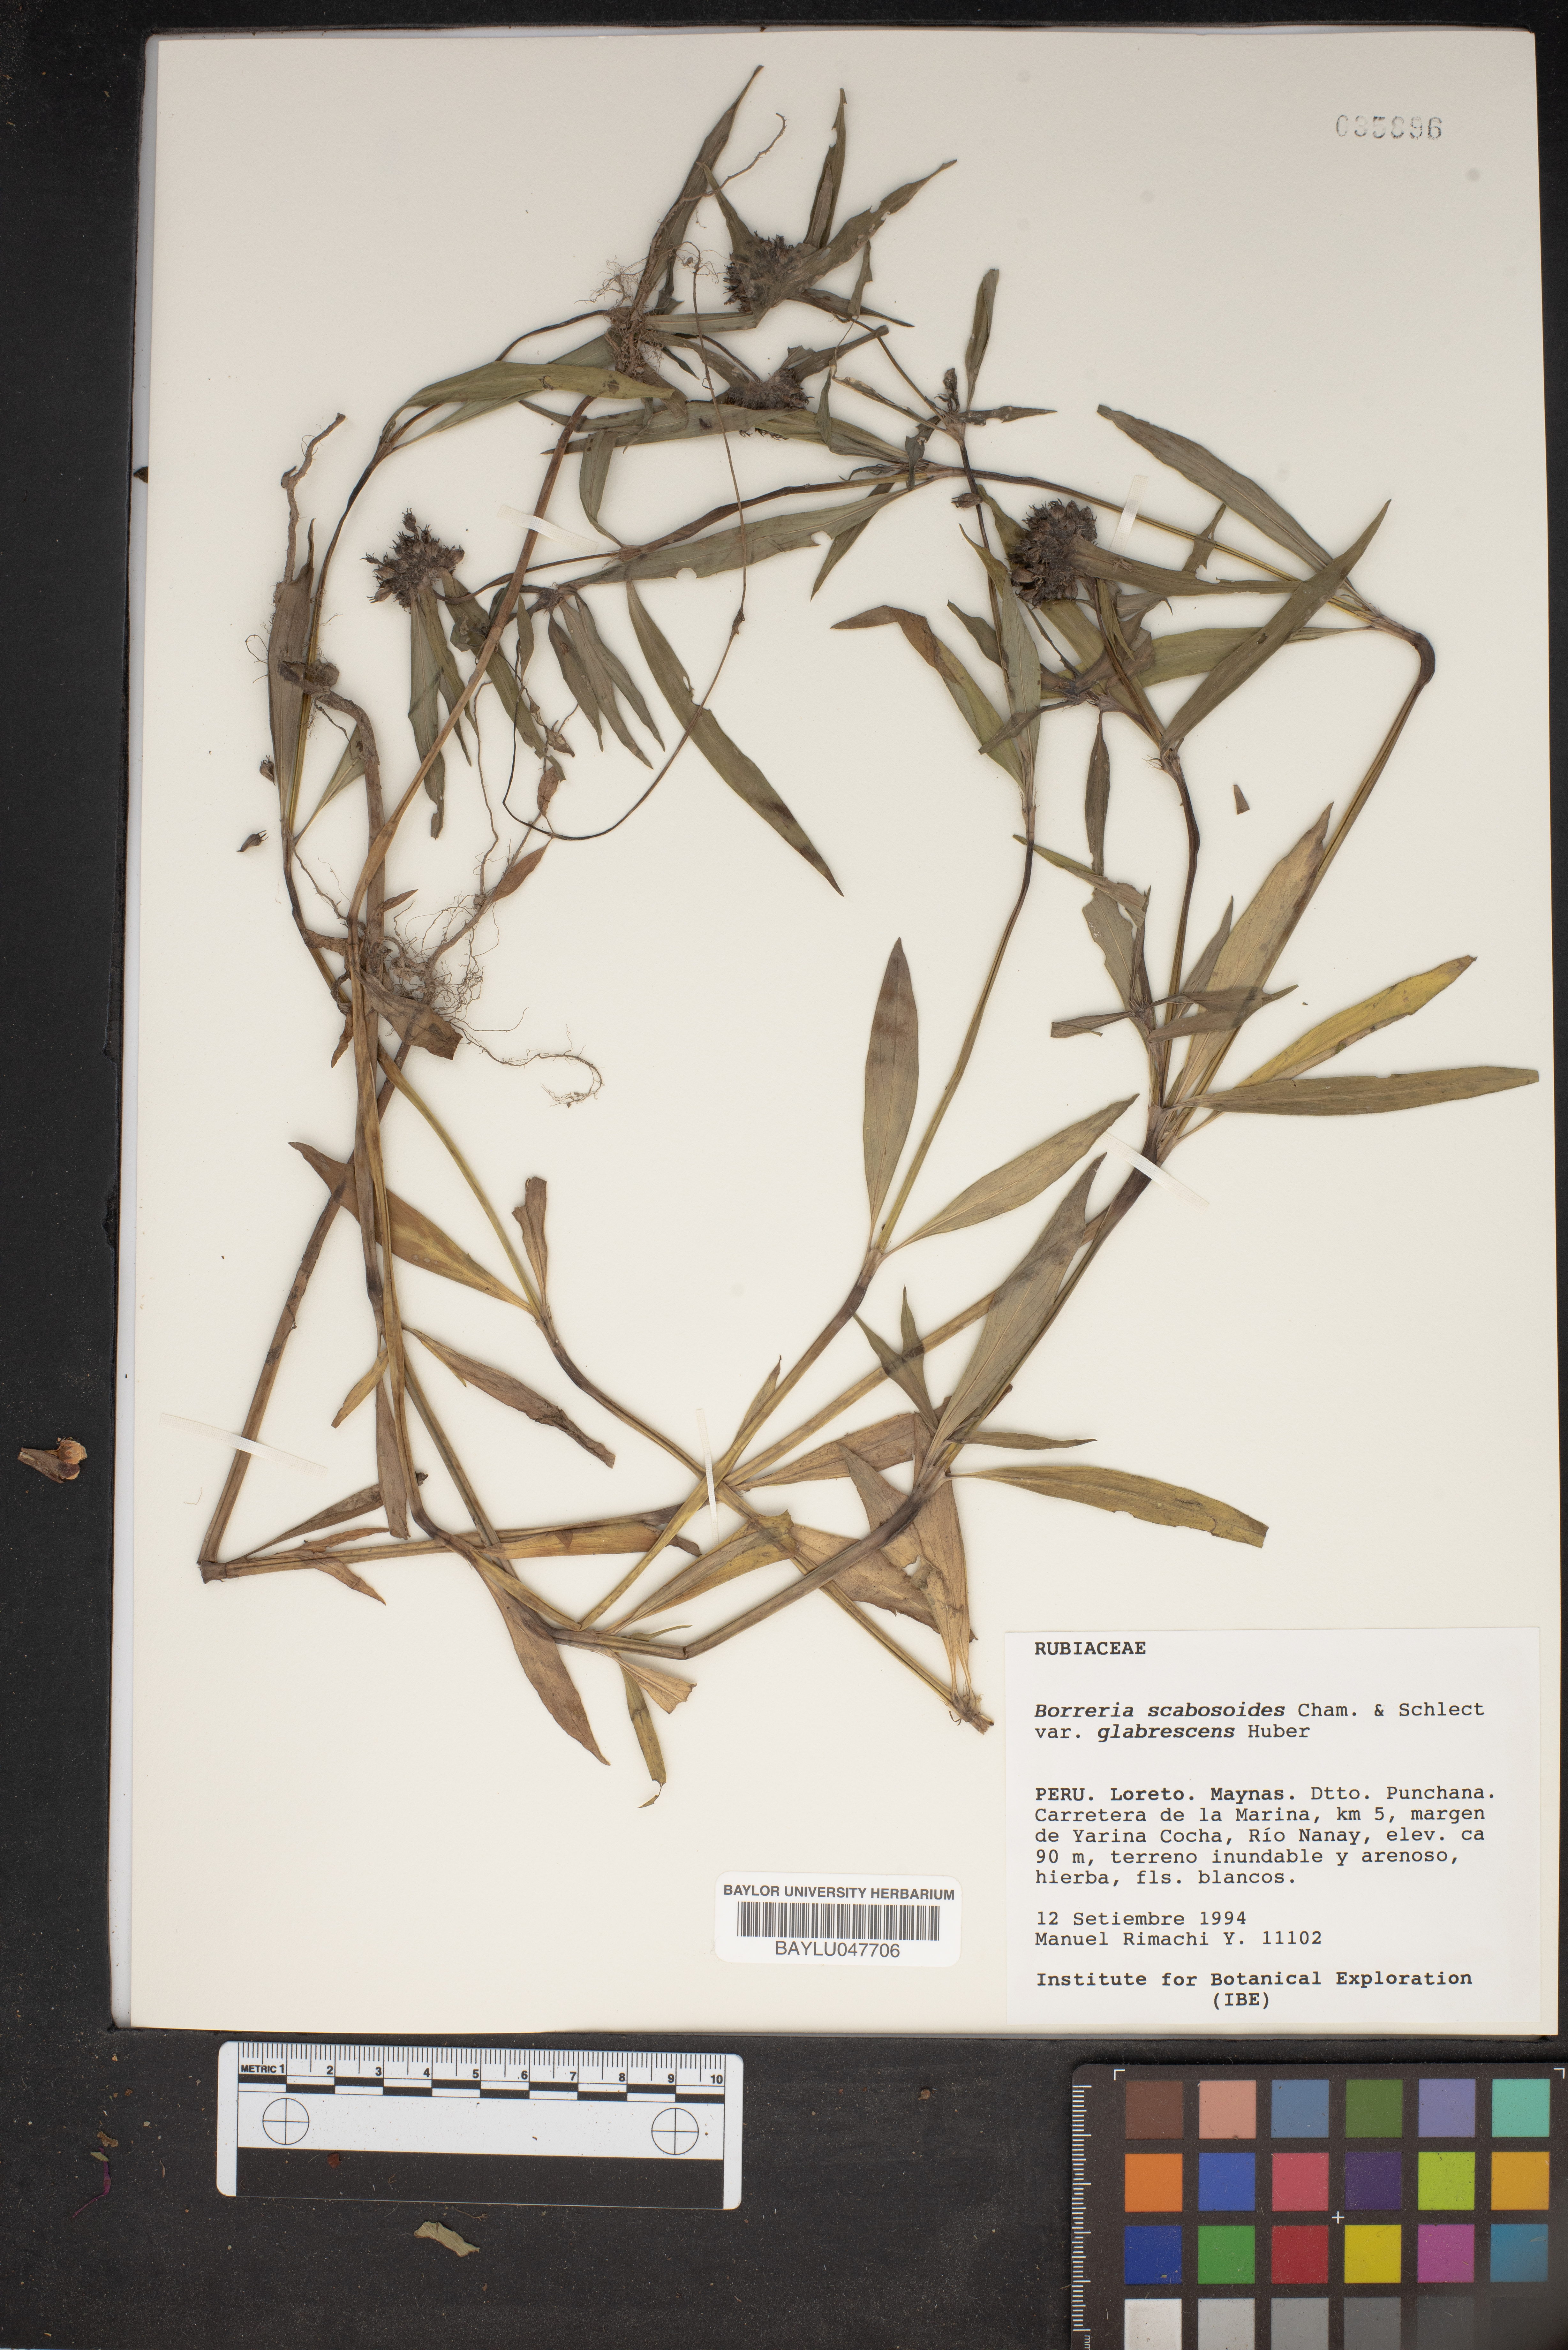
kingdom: Plantae
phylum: Tracheophyta
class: Magnoliopsida
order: Gentianales
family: Rubiaceae
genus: Spermacoce
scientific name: Spermacoce scabiosoides
